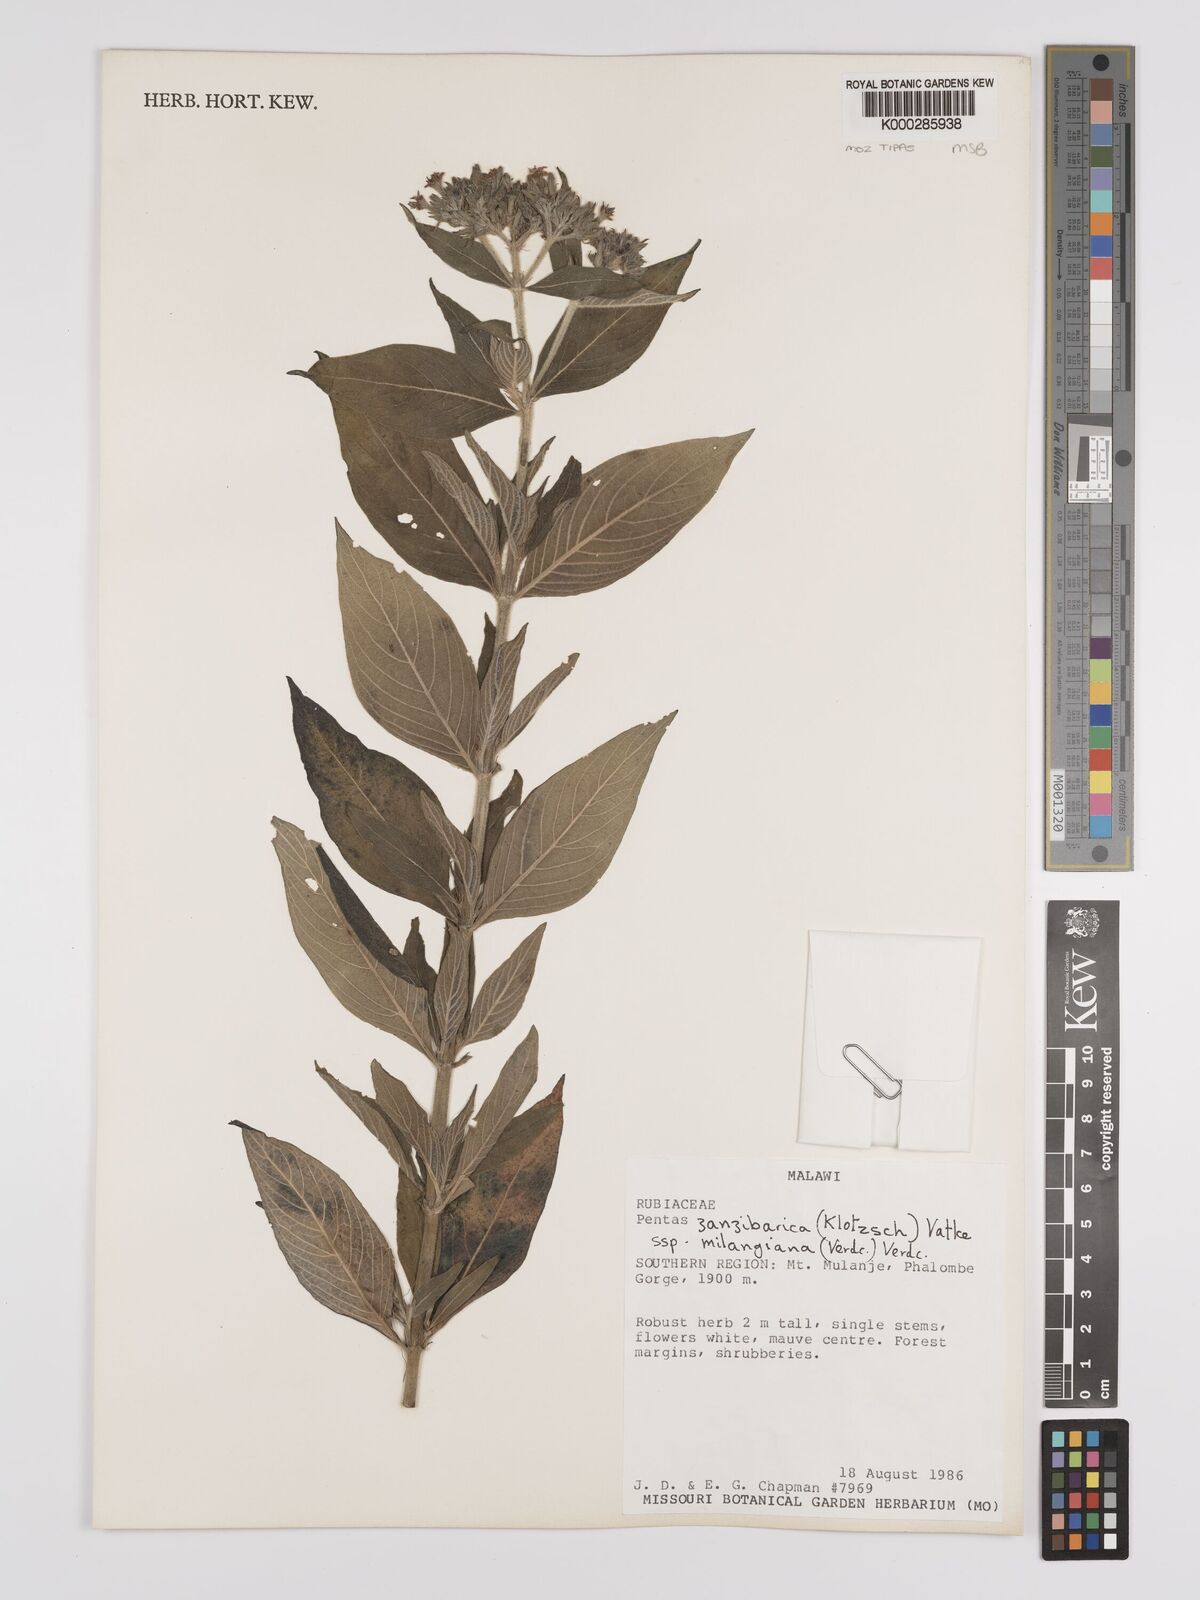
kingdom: Plantae
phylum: Tracheophyta
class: Magnoliopsida
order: Gentianales
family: Rubiaceae
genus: Pentas
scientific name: Pentas zanzibarica
